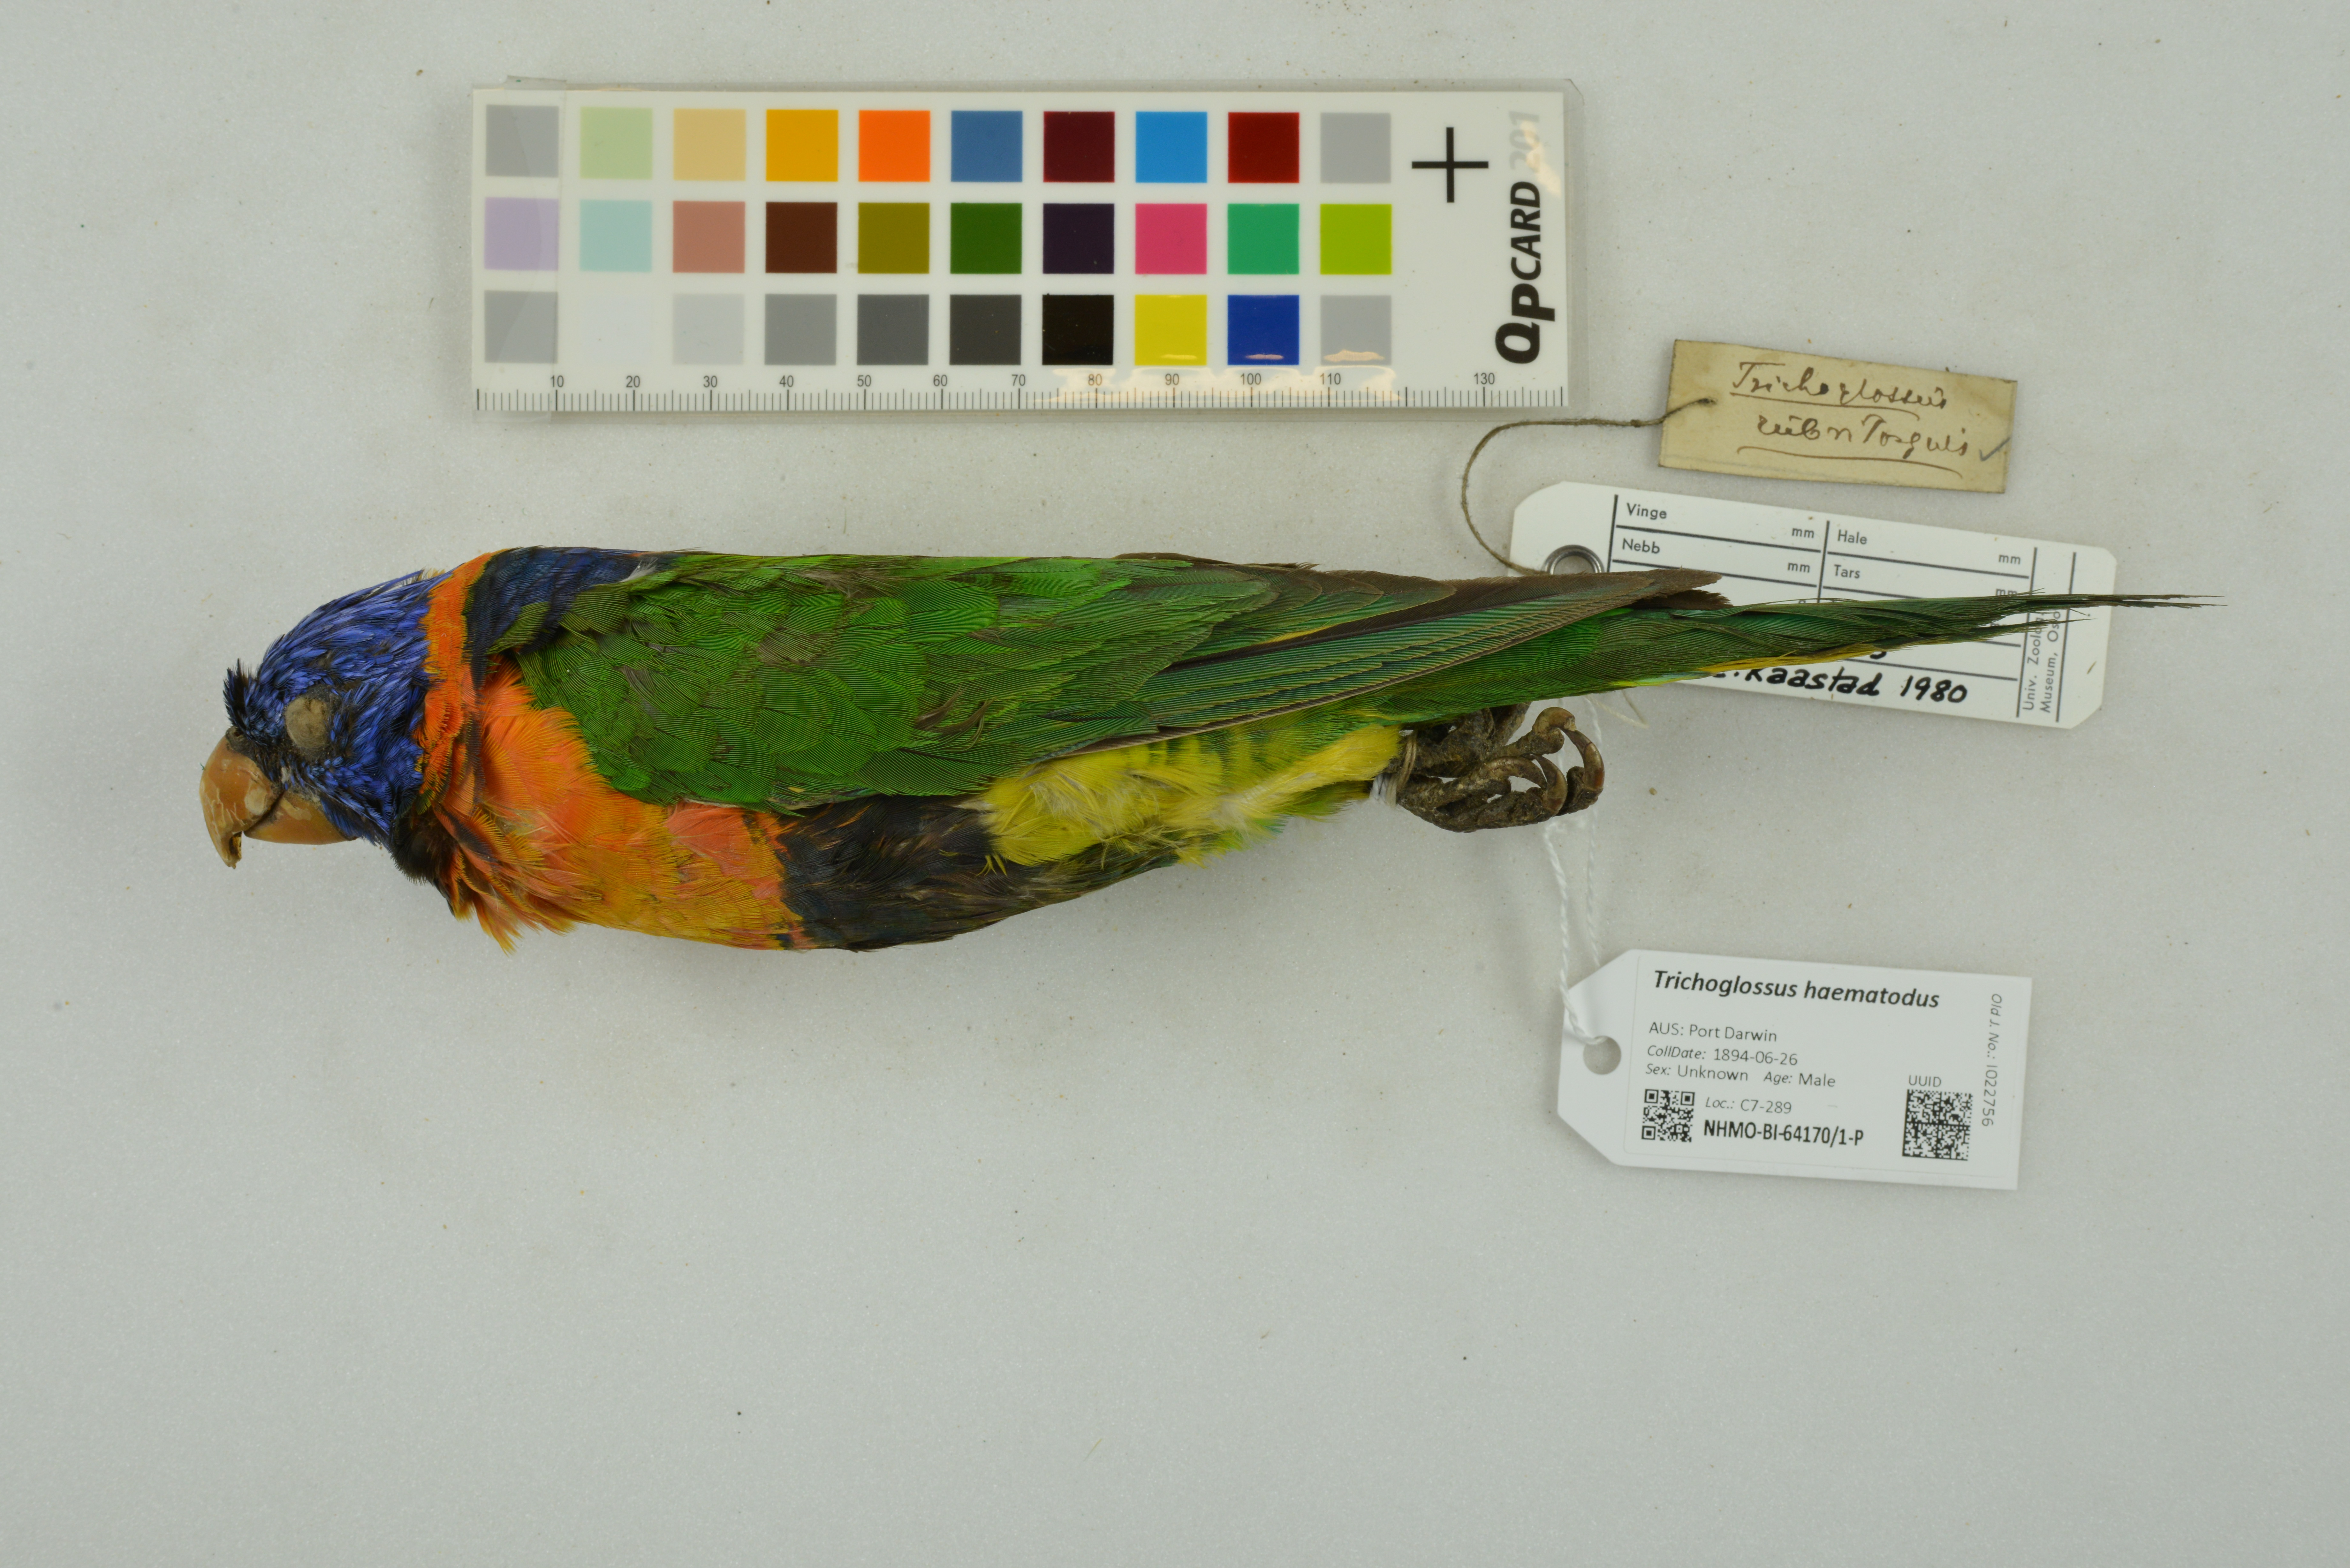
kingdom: Animalia
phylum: Chordata
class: Aves
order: Psittaciformes
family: Psittacidae
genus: Trichoglossus
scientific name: Trichoglossus haematodus
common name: Coconut lorikeet
